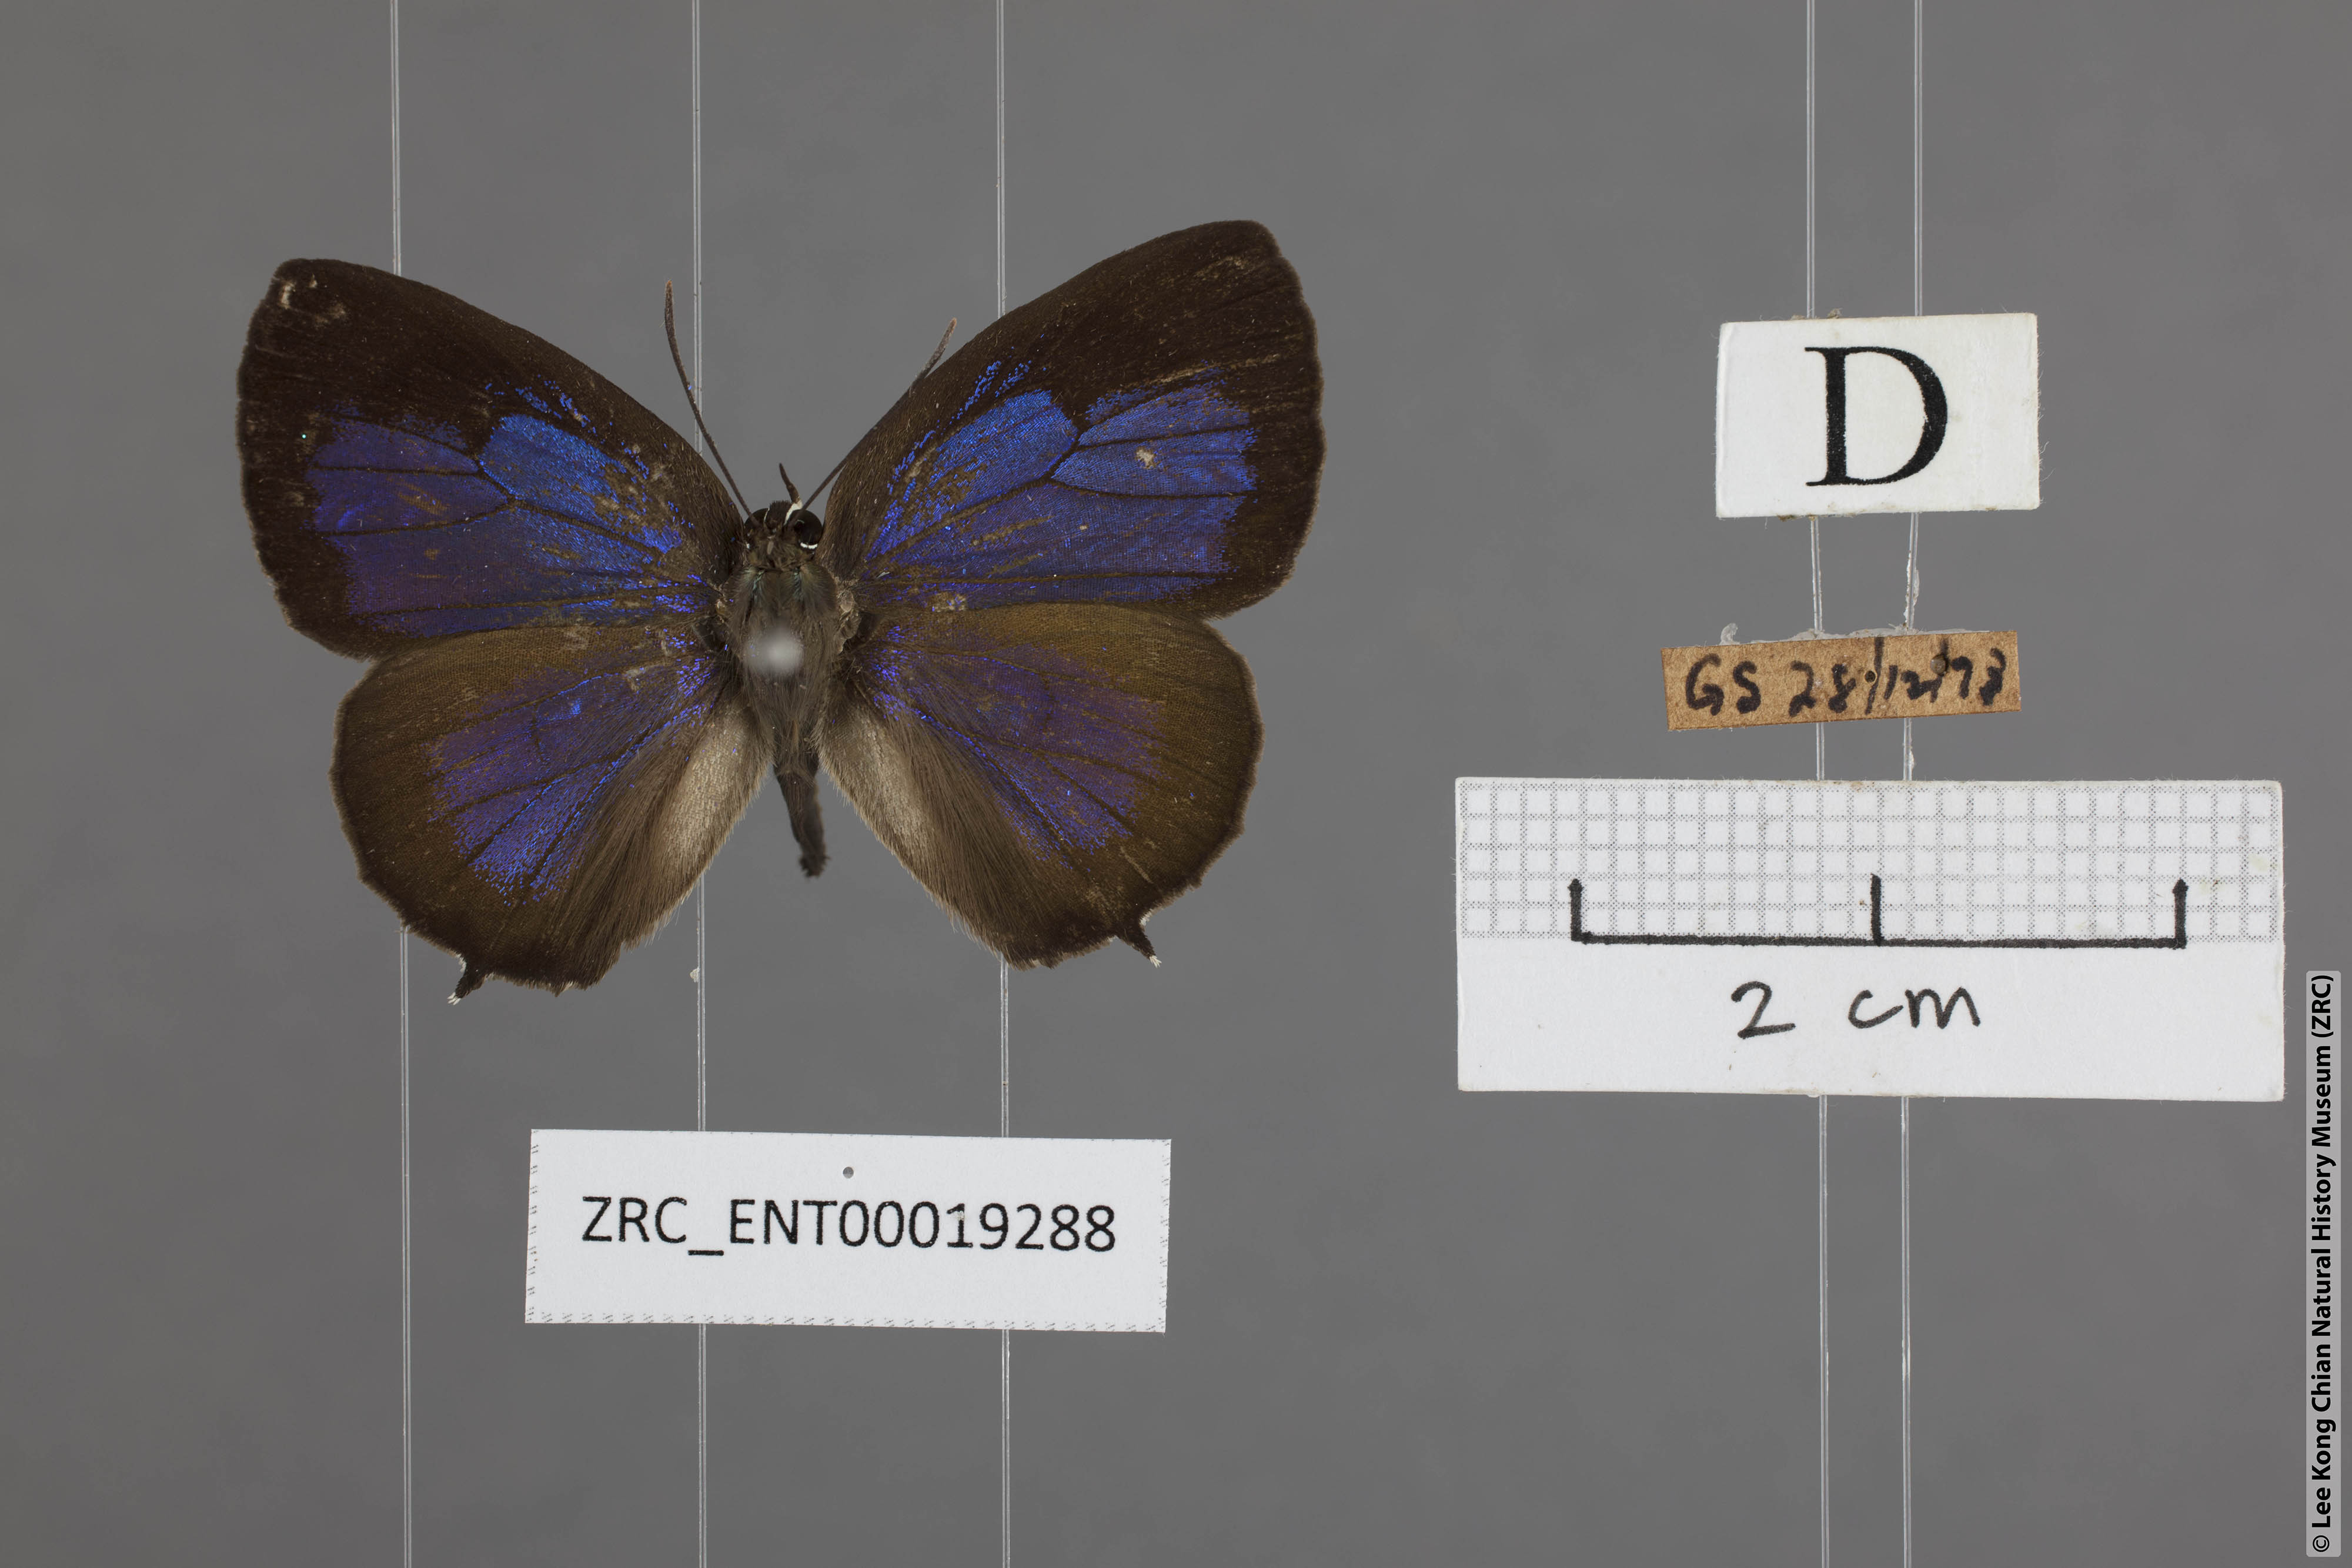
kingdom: Animalia
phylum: Arthropoda
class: Insecta
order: Lepidoptera
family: Lycaenidae
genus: Arhopala
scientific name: Arhopala aurea
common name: Long-celled oakblue
